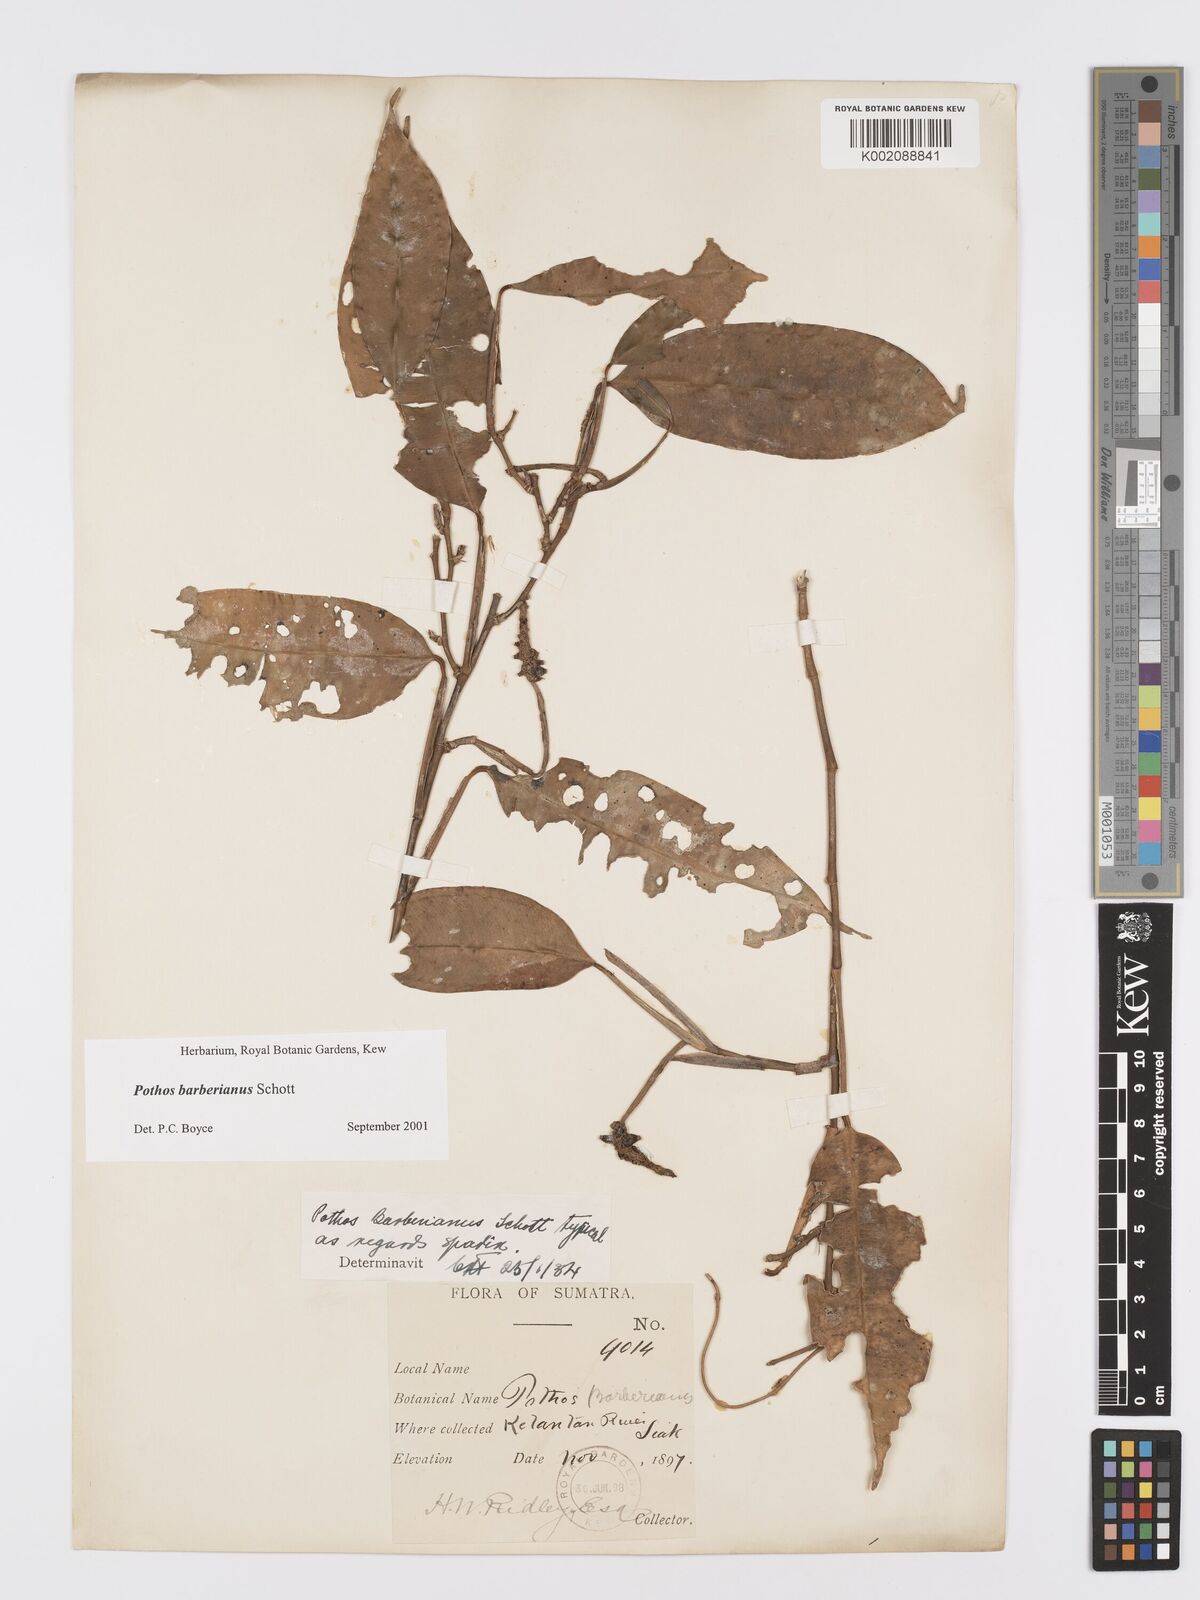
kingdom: Plantae
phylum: Tracheophyta
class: Liliopsida
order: Alismatales
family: Araceae
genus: Pothos
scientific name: Pothos barberianus
